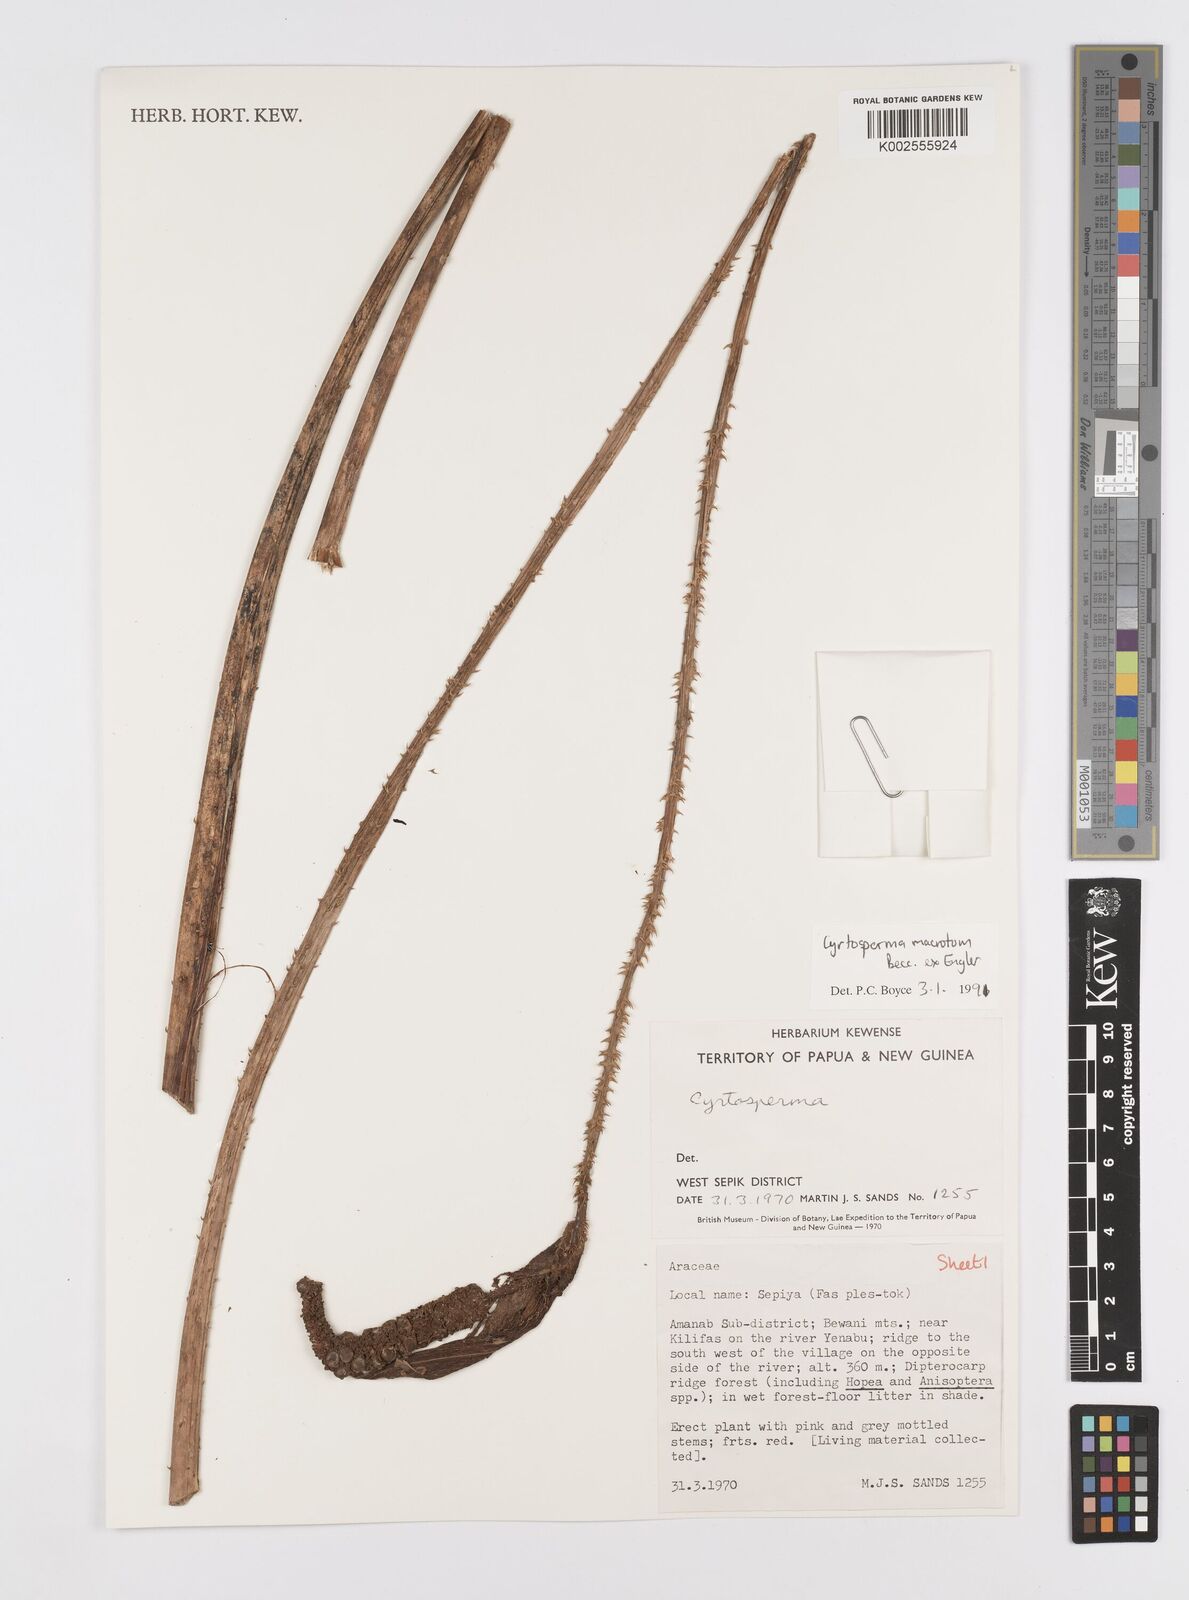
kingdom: Plantae
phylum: Tracheophyta
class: Liliopsida
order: Alismatales
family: Araceae
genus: Cyrtosperma
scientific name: Cyrtosperma macrotum
